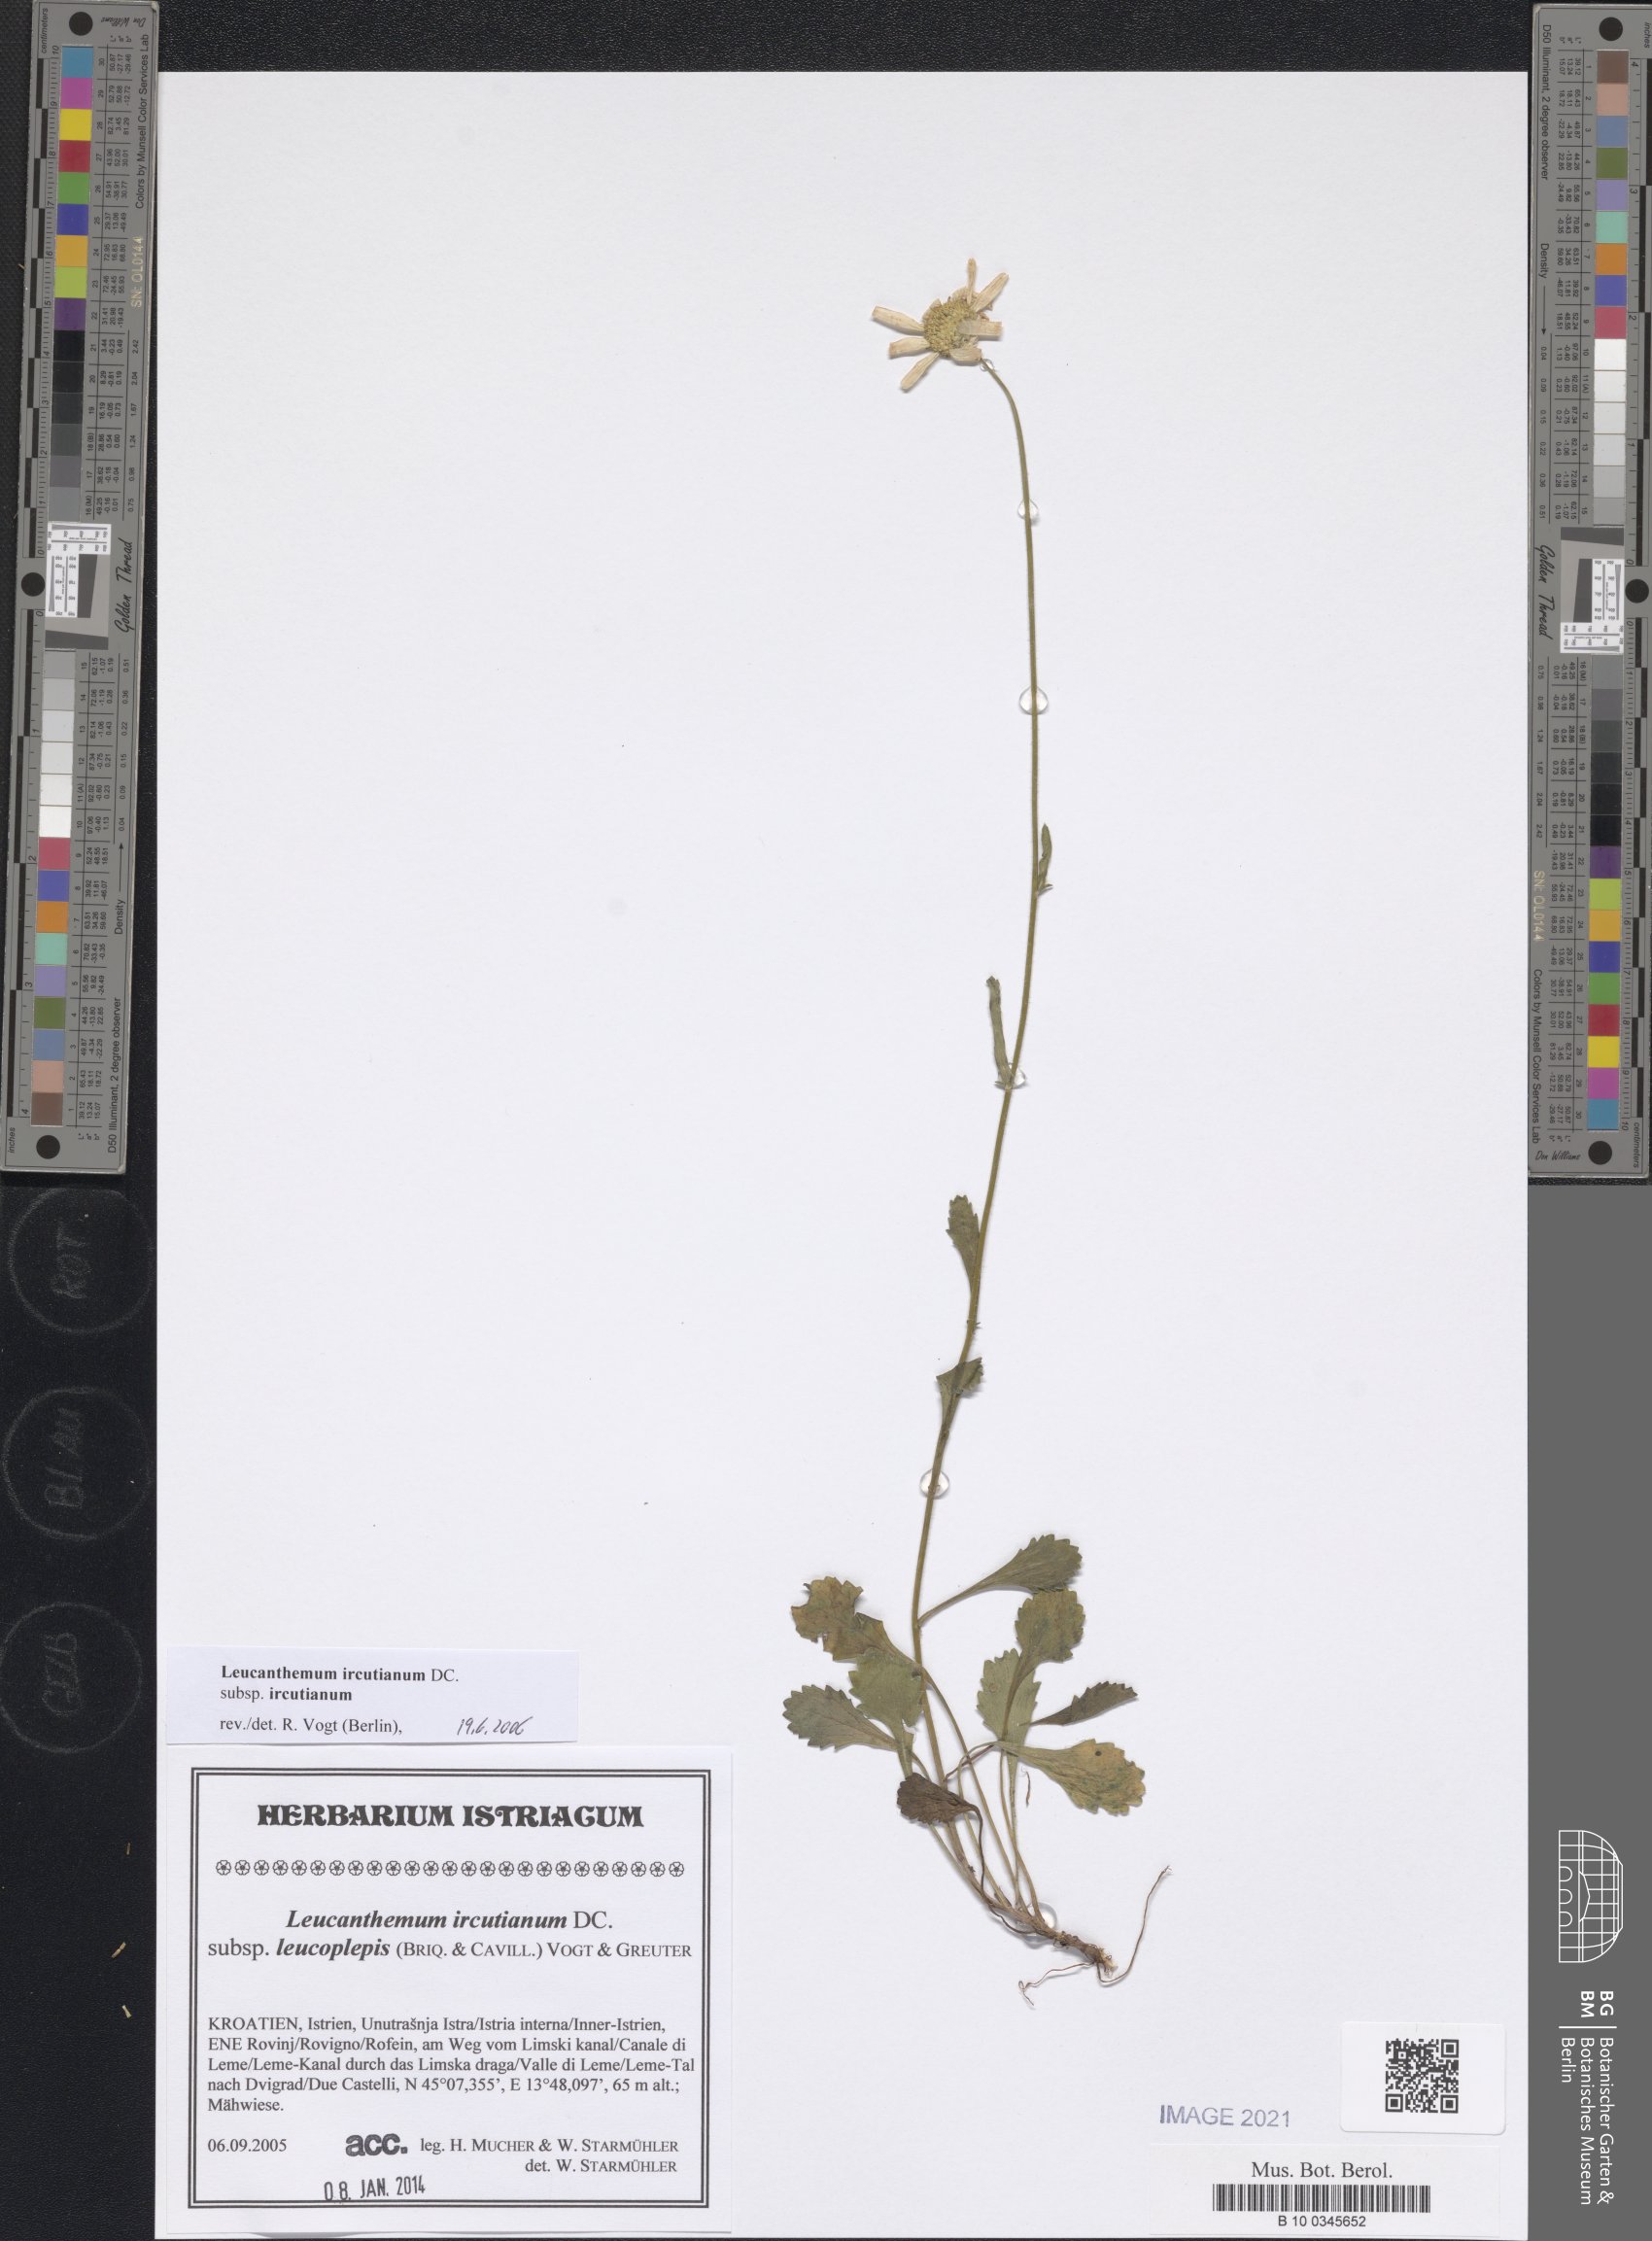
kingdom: Plantae
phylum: Tracheophyta
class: Magnoliopsida
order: Asterales
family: Asteraceae
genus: Leucanthemum
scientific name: Leucanthemum ircutianum
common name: Daisy
